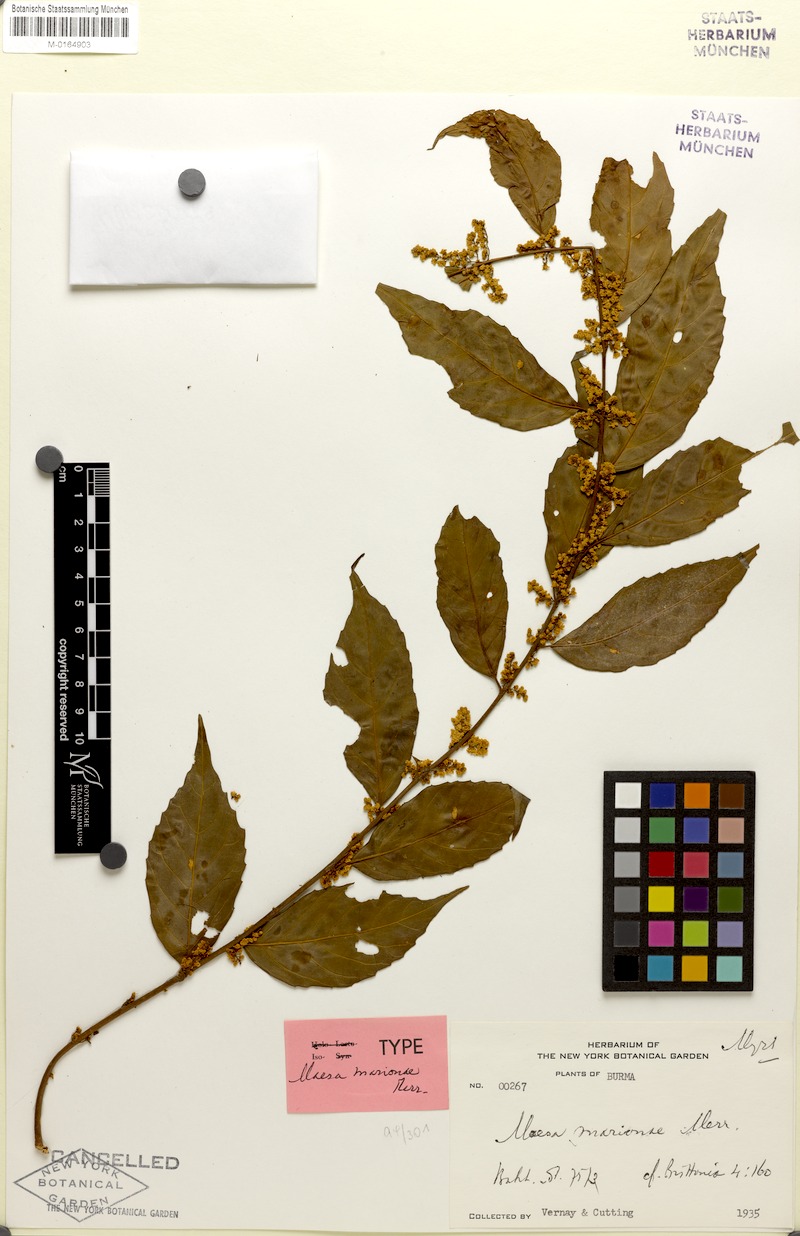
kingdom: Plantae
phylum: Tracheophyta
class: Magnoliopsida
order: Ericales
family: Primulaceae
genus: Maesa
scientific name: Maesa marioniae
